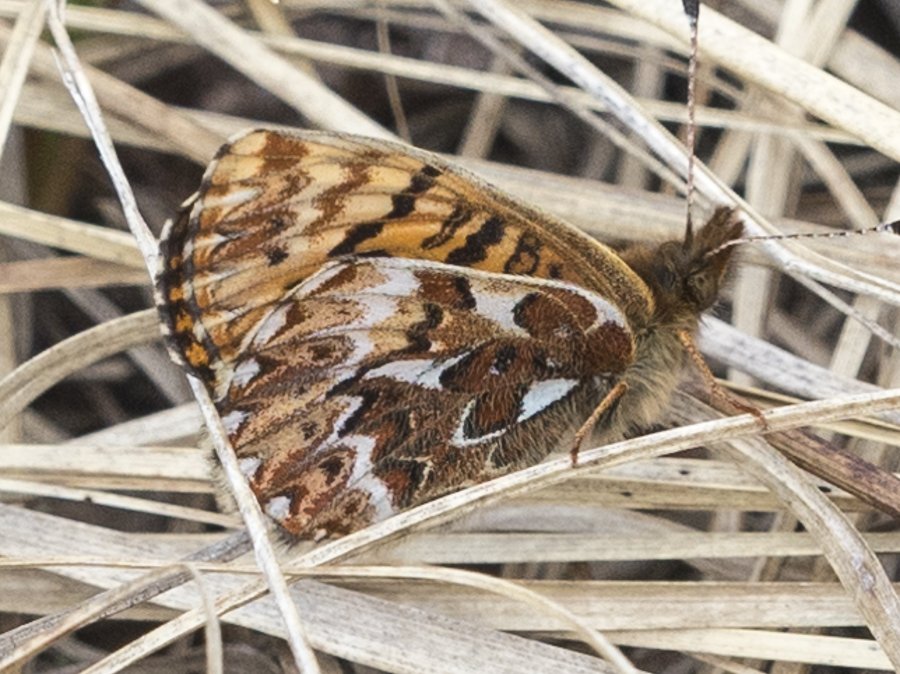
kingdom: Animalia
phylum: Arthropoda
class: Insecta
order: Lepidoptera
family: Nymphalidae
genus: Boloria
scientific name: Boloria freija
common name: Freija Fritillary
